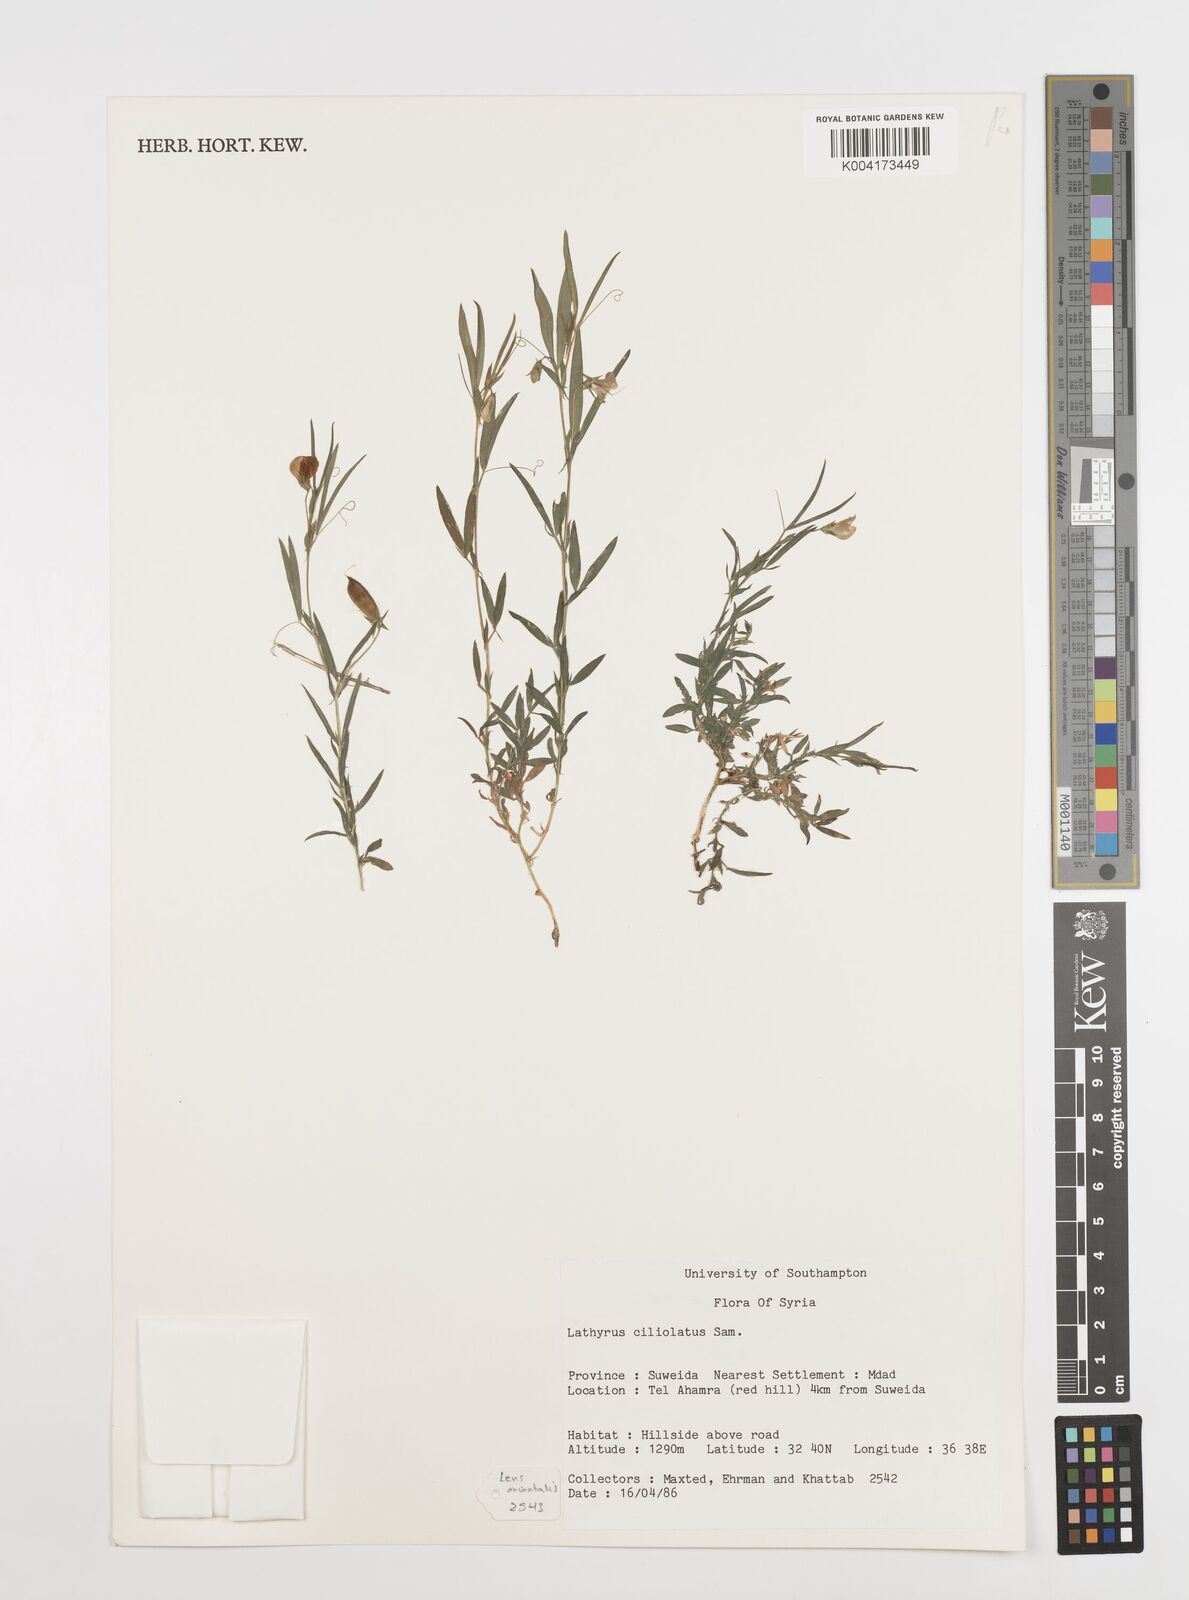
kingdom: Plantae
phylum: Tracheophyta
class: Magnoliopsida
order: Fabales
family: Fabaceae
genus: Lathyrus
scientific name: Lathyrus ciliolatus
